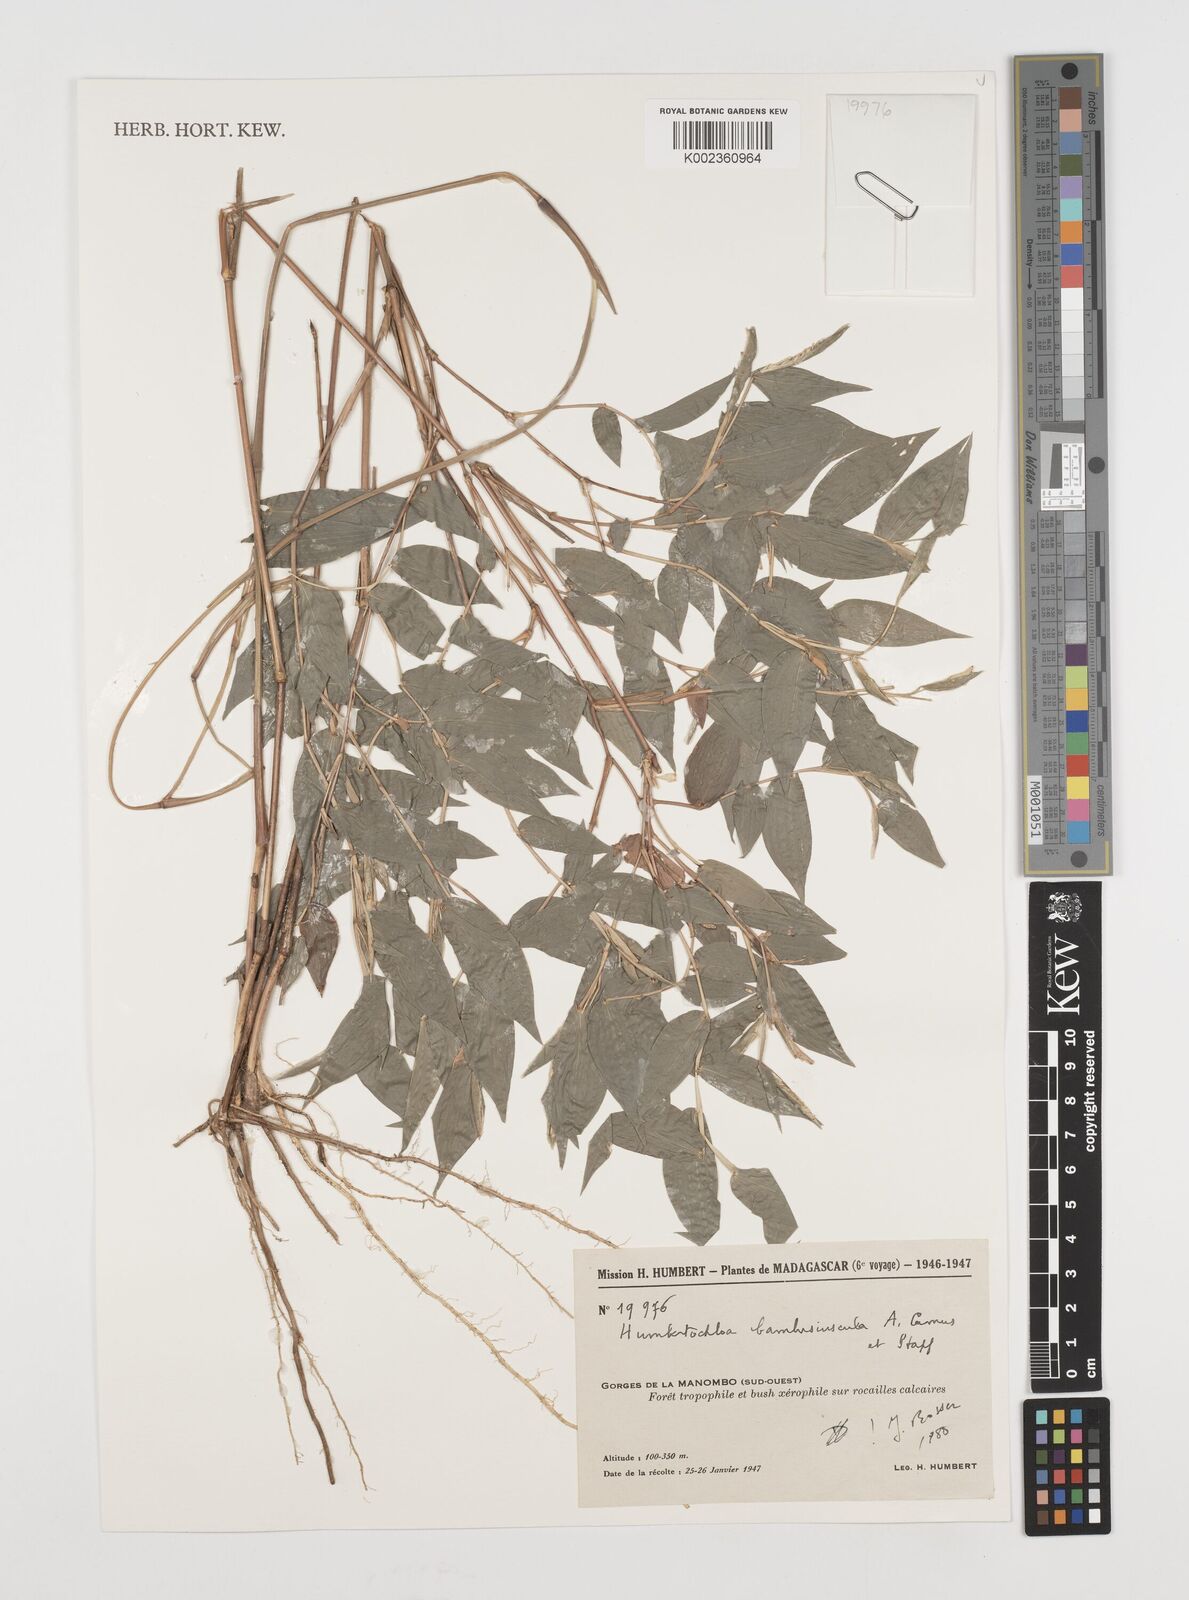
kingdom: Plantae
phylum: Tracheophyta
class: Liliopsida
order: Poales
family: Poaceae
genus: Humbertochloa
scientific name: Humbertochloa bambusiuscula
